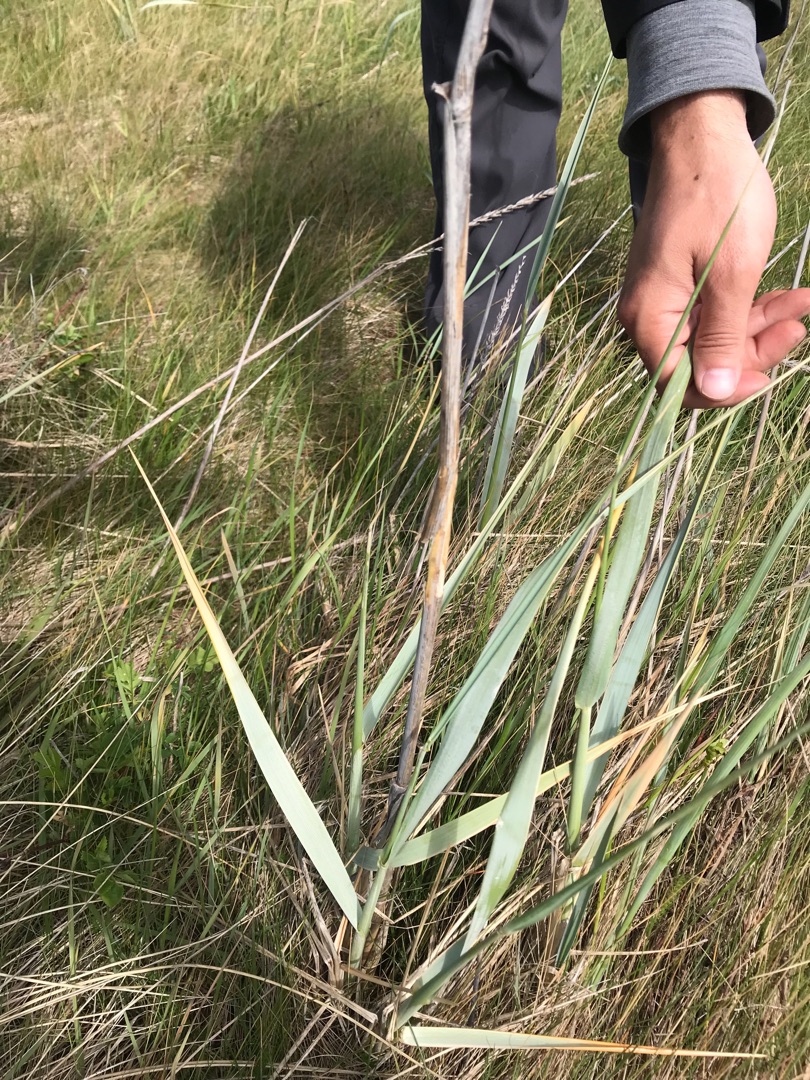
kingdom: Plantae
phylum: Tracheophyta
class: Liliopsida
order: Poales
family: Poaceae
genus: Leymus
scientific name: Leymus arenarius
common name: Marehalm
